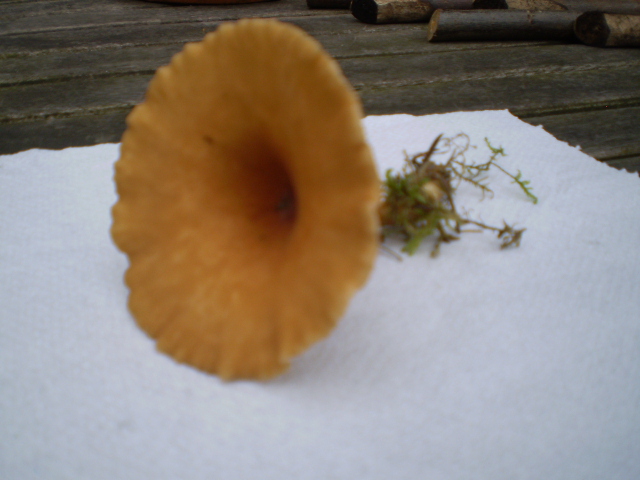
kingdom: Fungi
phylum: Basidiomycota
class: Agaricomycetes
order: Agaricales
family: Tricholomataceae
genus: Clitocybe
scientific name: Clitocybe costata
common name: brunstokket tragthat
